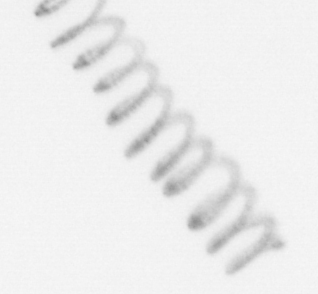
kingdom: Chromista
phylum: Ochrophyta
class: Bacillariophyceae
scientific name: Bacillariophyceae
